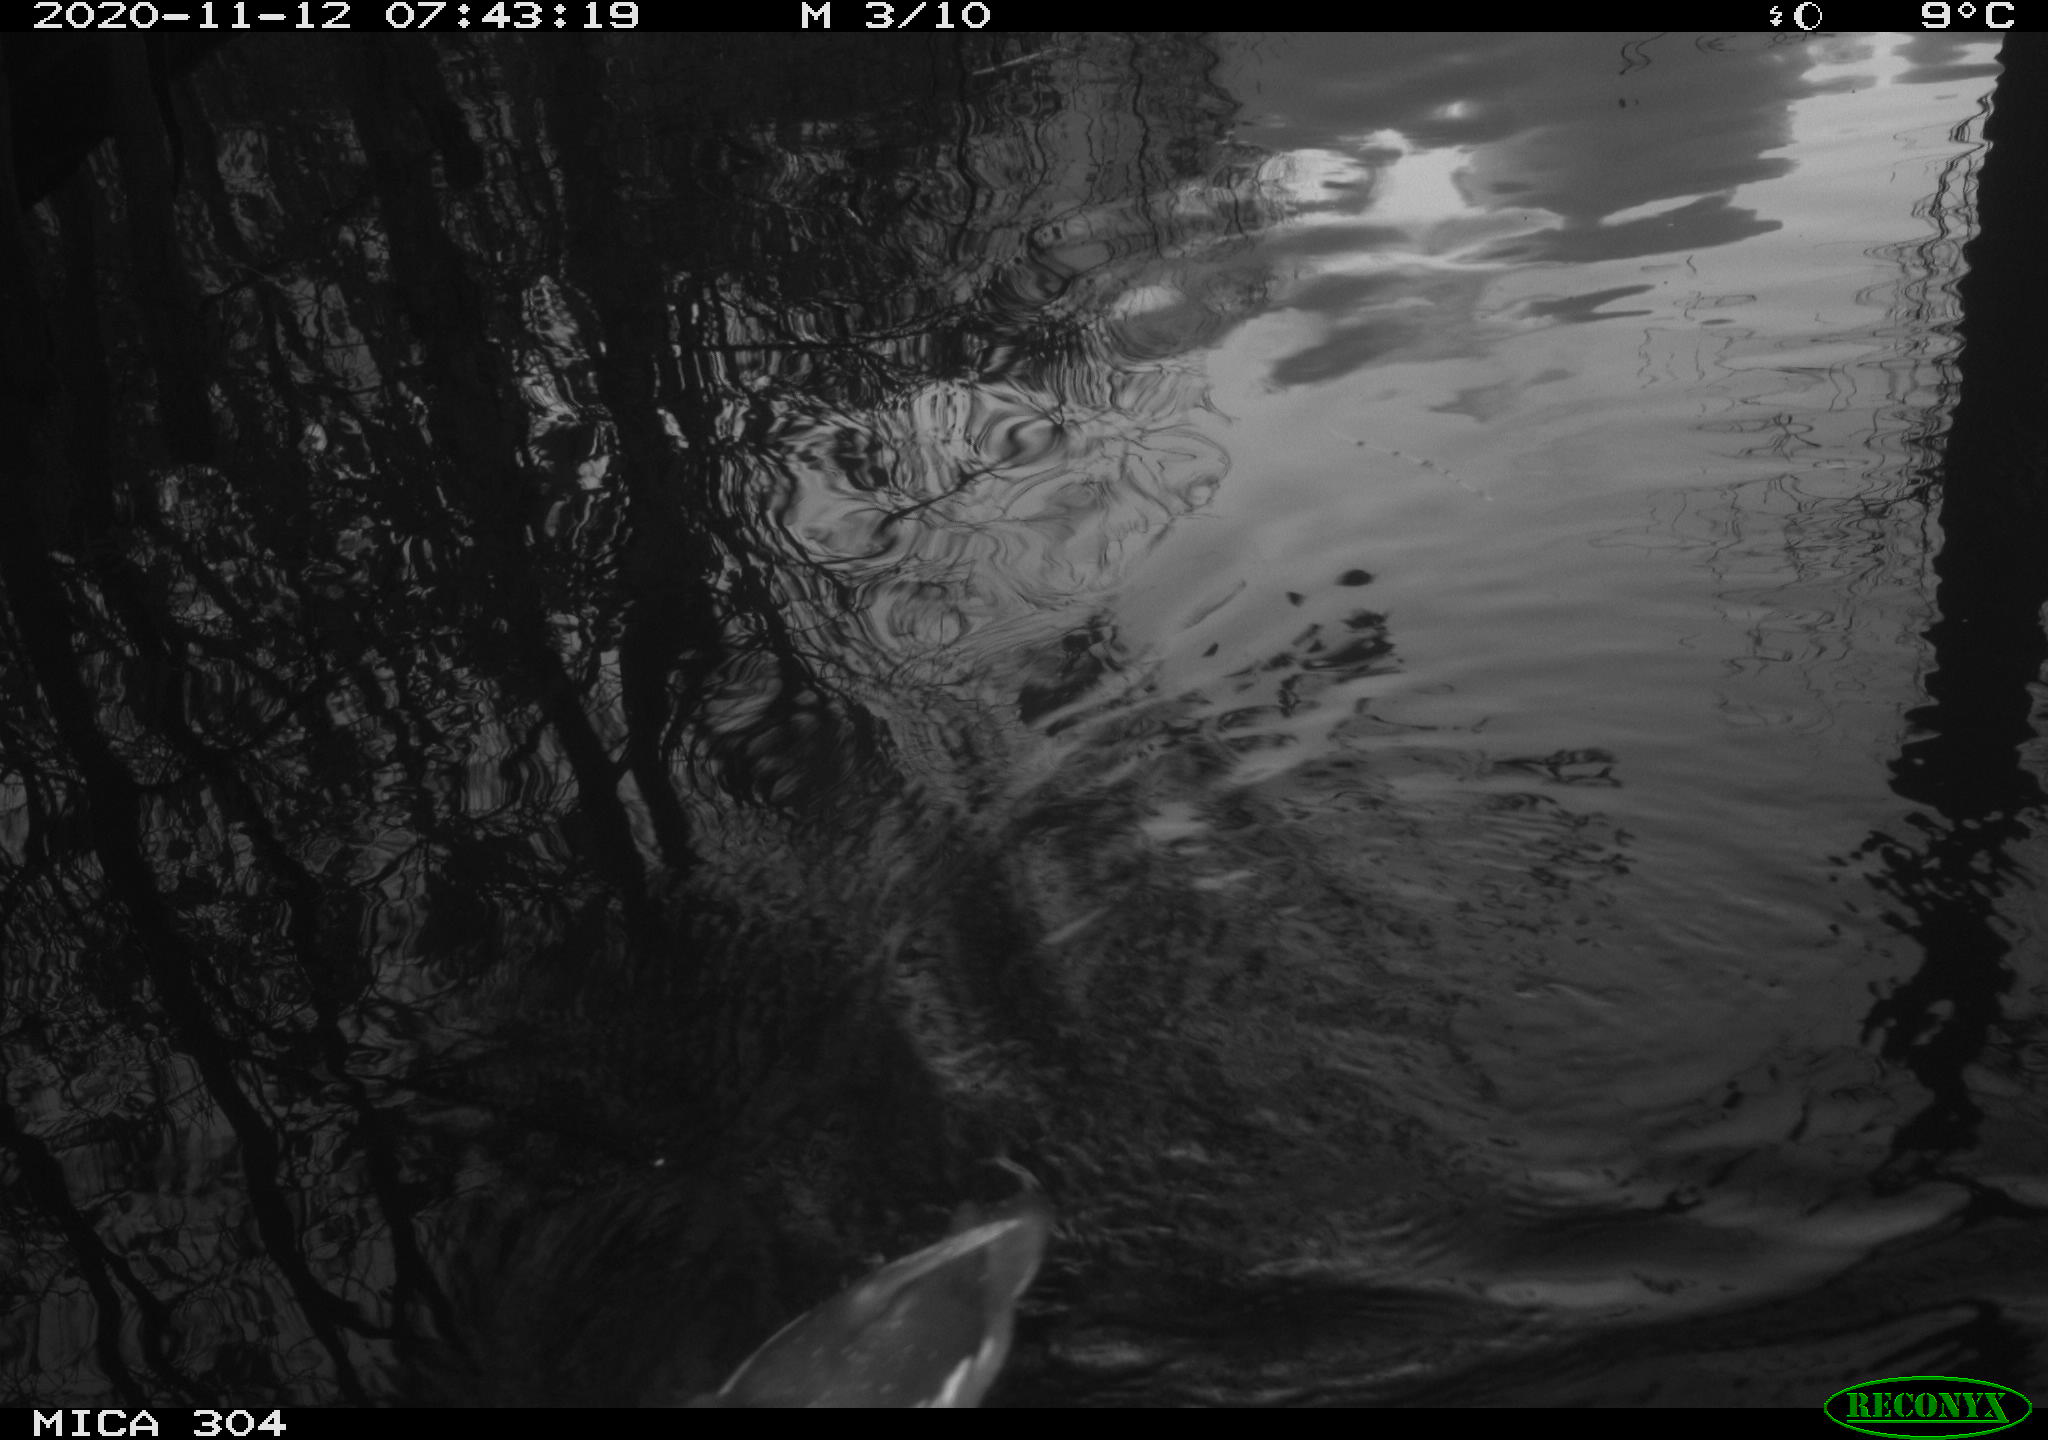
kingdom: Animalia
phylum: Chordata
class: Aves
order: Gruiformes
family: Rallidae
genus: Gallinula
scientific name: Gallinula chloropus
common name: Common moorhen
